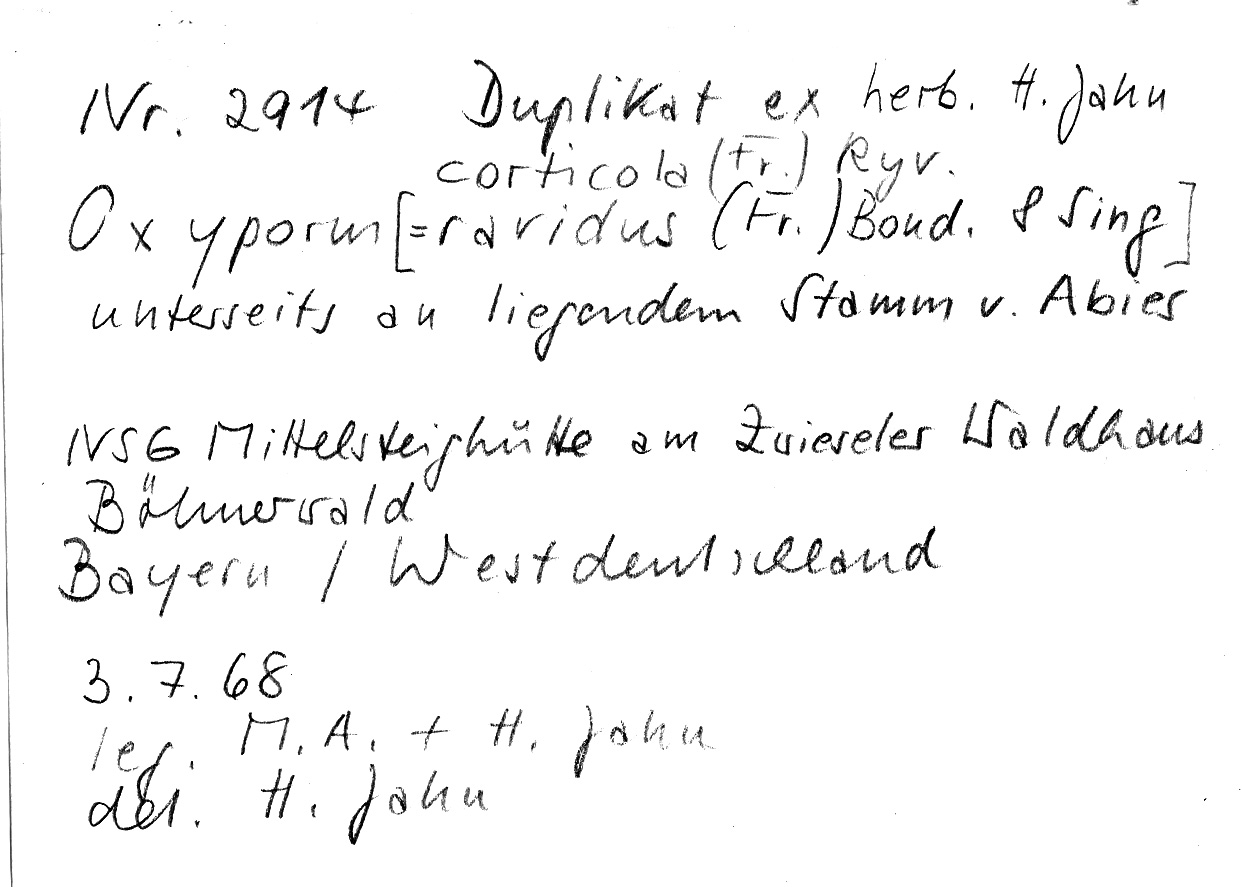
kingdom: Plantae
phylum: Tracheophyta
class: Pinopsida
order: Pinales
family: Pinaceae
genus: Abies
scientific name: Abies
